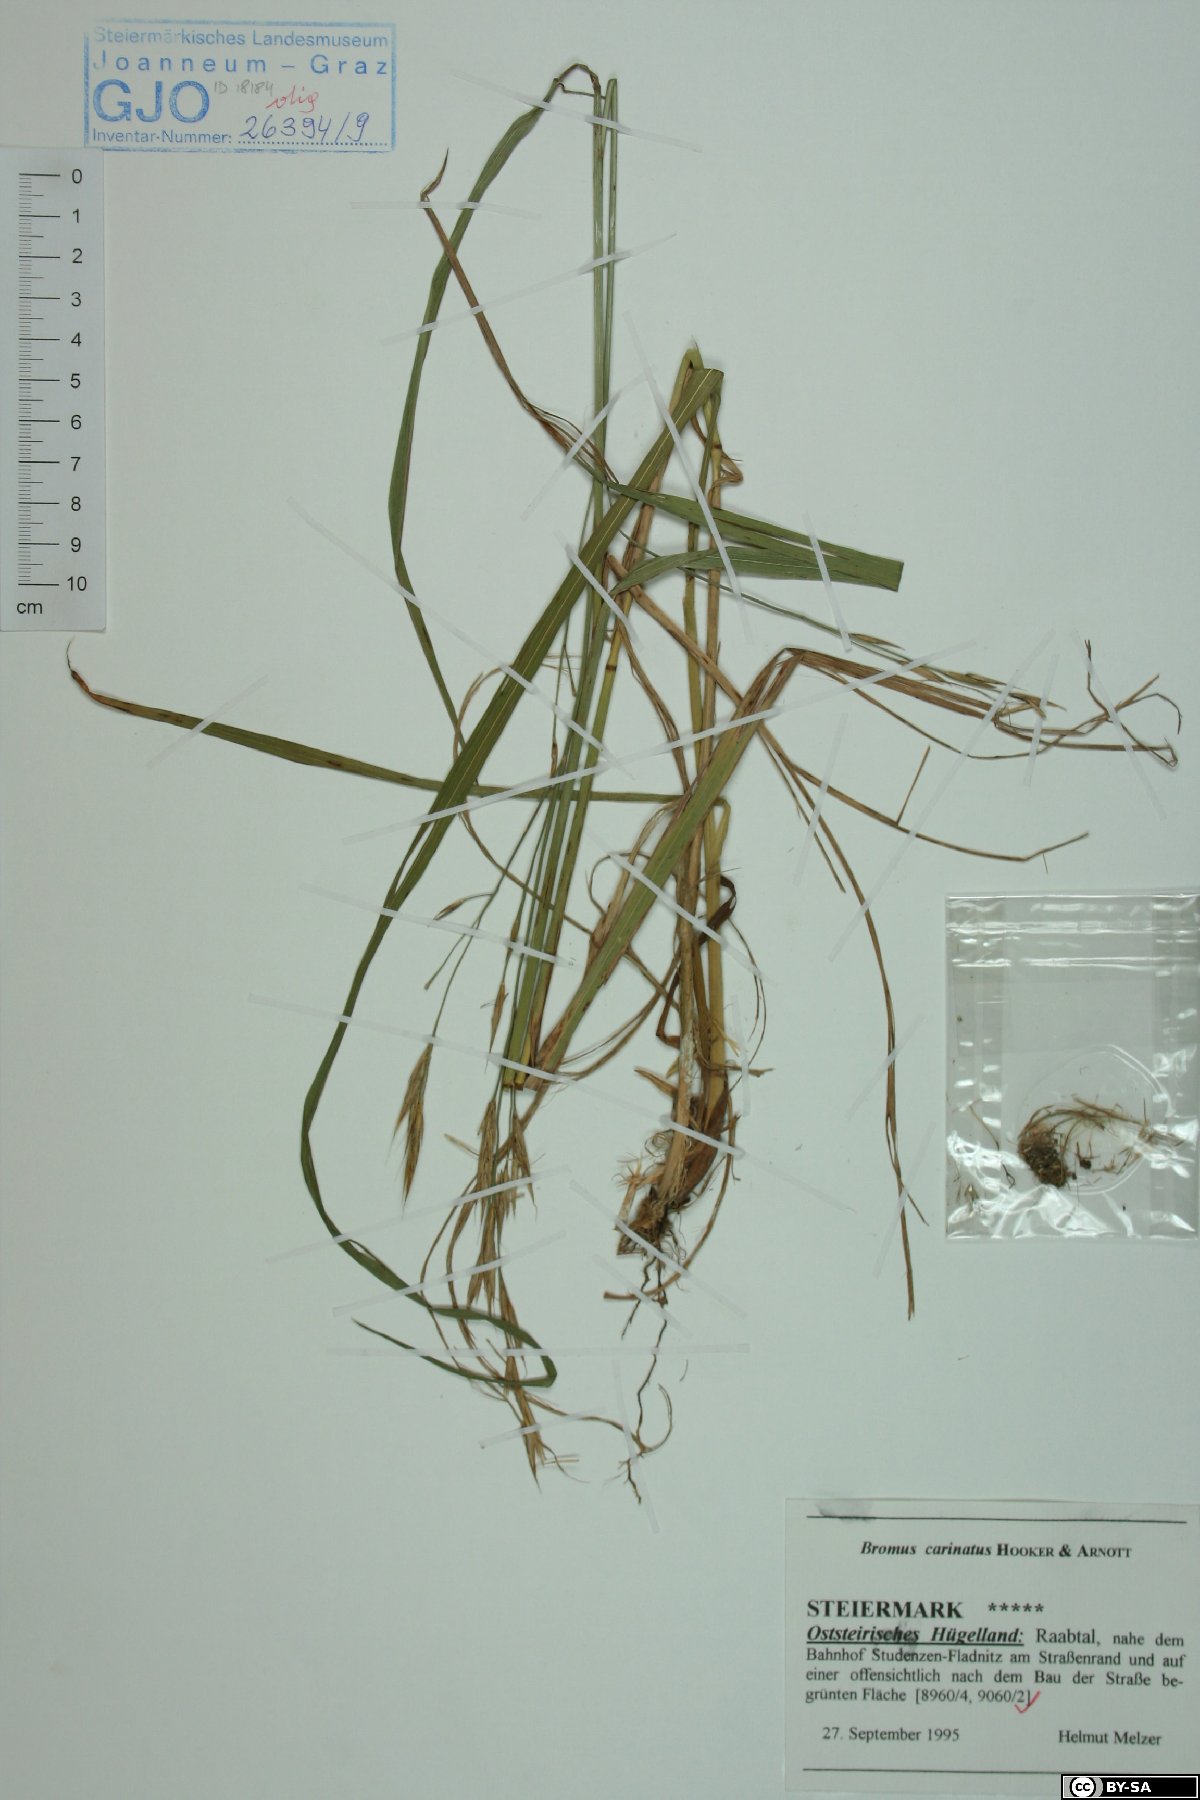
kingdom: Plantae
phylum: Tracheophyta
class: Liliopsida
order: Poales
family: Poaceae
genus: Bromus
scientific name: Bromus carinatus
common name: Mountain brome
